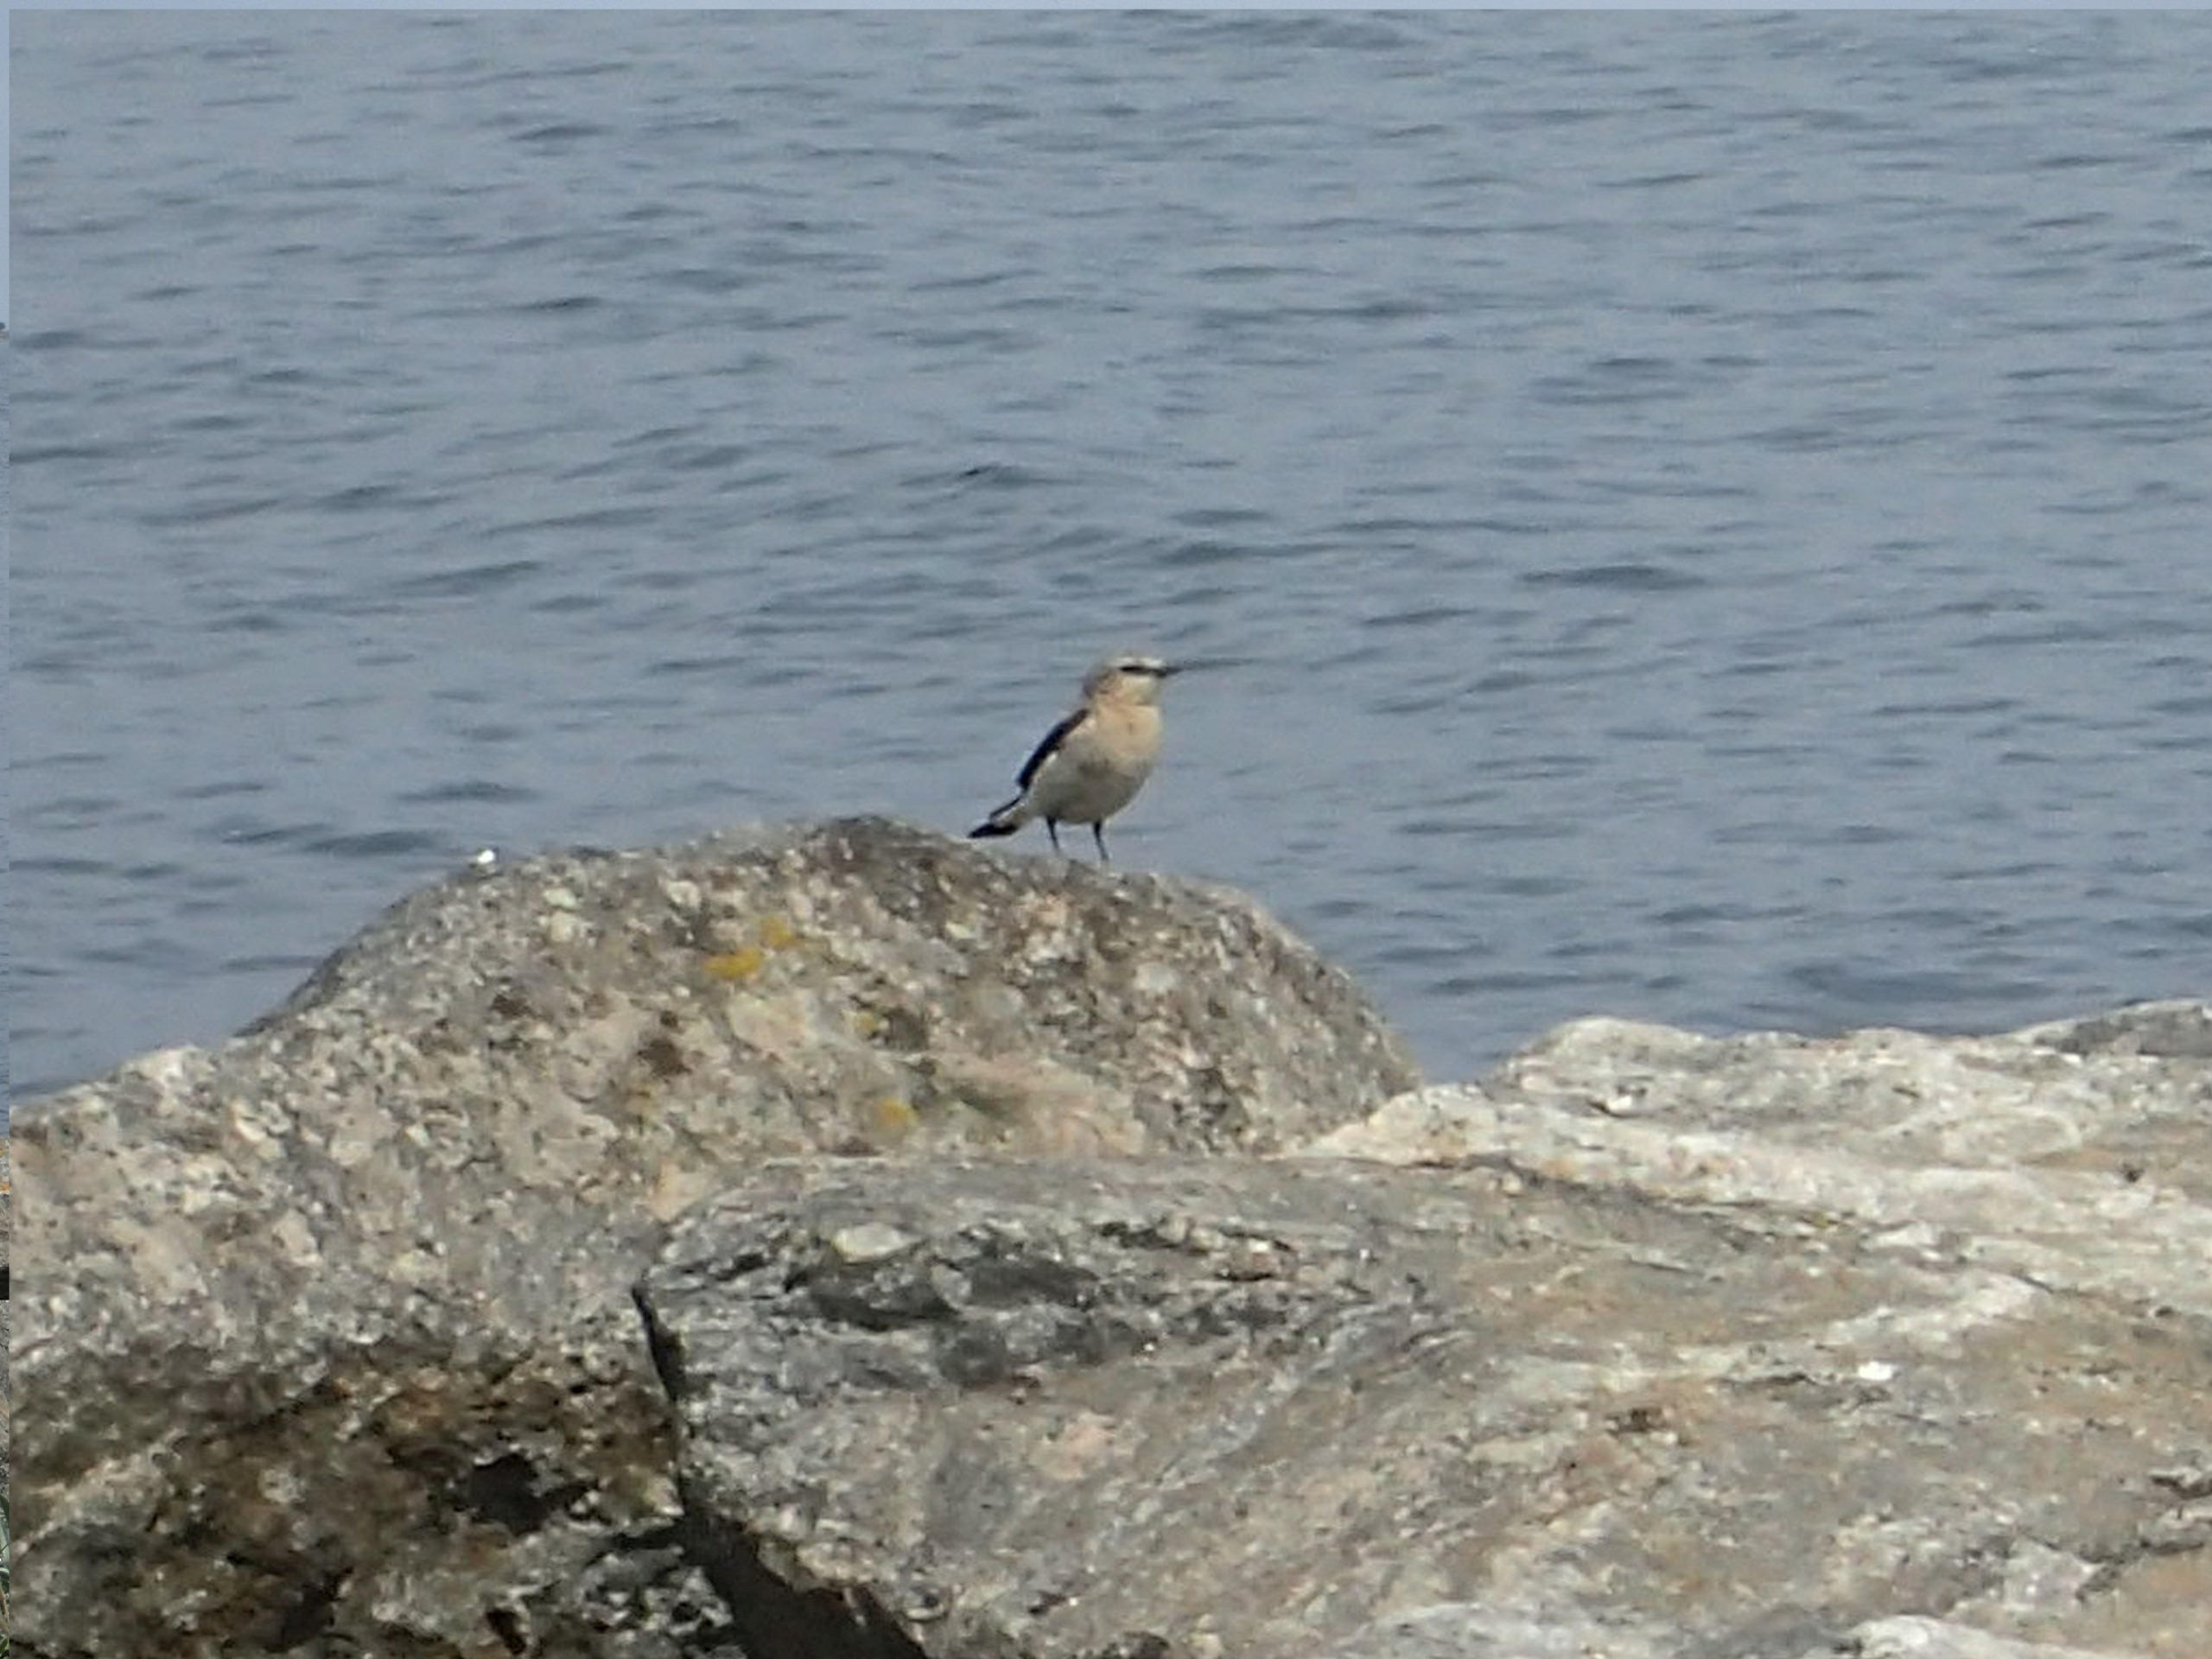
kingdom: Animalia
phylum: Chordata
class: Aves
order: Passeriformes
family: Muscicapidae
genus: Oenanthe
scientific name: Oenanthe oenanthe
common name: Stenpikker
